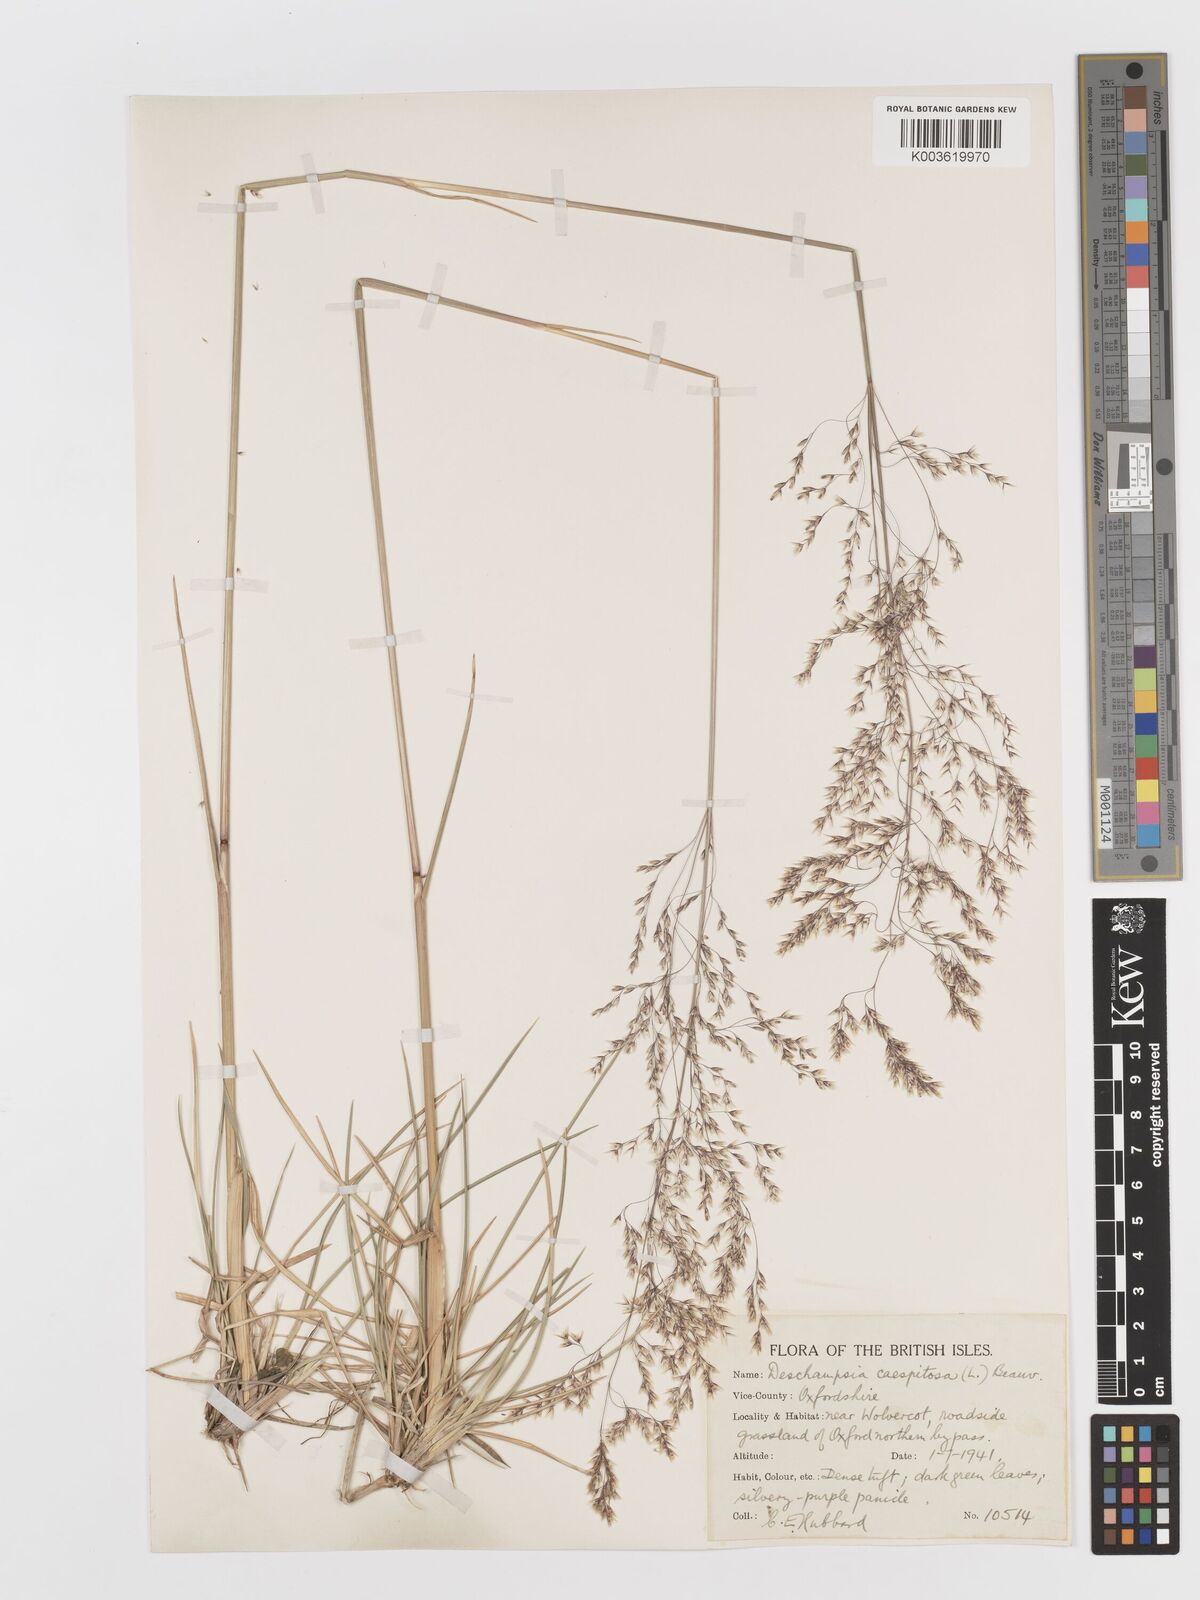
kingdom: Plantae
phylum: Tracheophyta
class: Liliopsida
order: Poales
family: Poaceae
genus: Deschampsia
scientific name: Deschampsia cespitosa
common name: Tufted hair-grass
